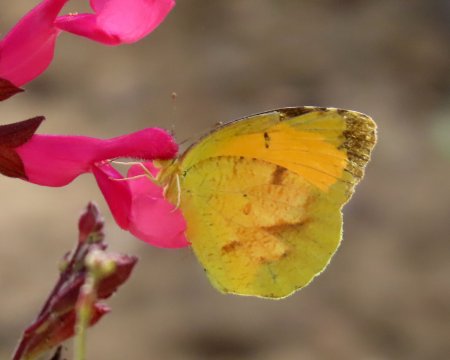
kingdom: Animalia
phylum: Arthropoda
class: Insecta
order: Lepidoptera
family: Pieridae
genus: Abaeis
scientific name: Abaeis nicippe
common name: Sleepy Orange
